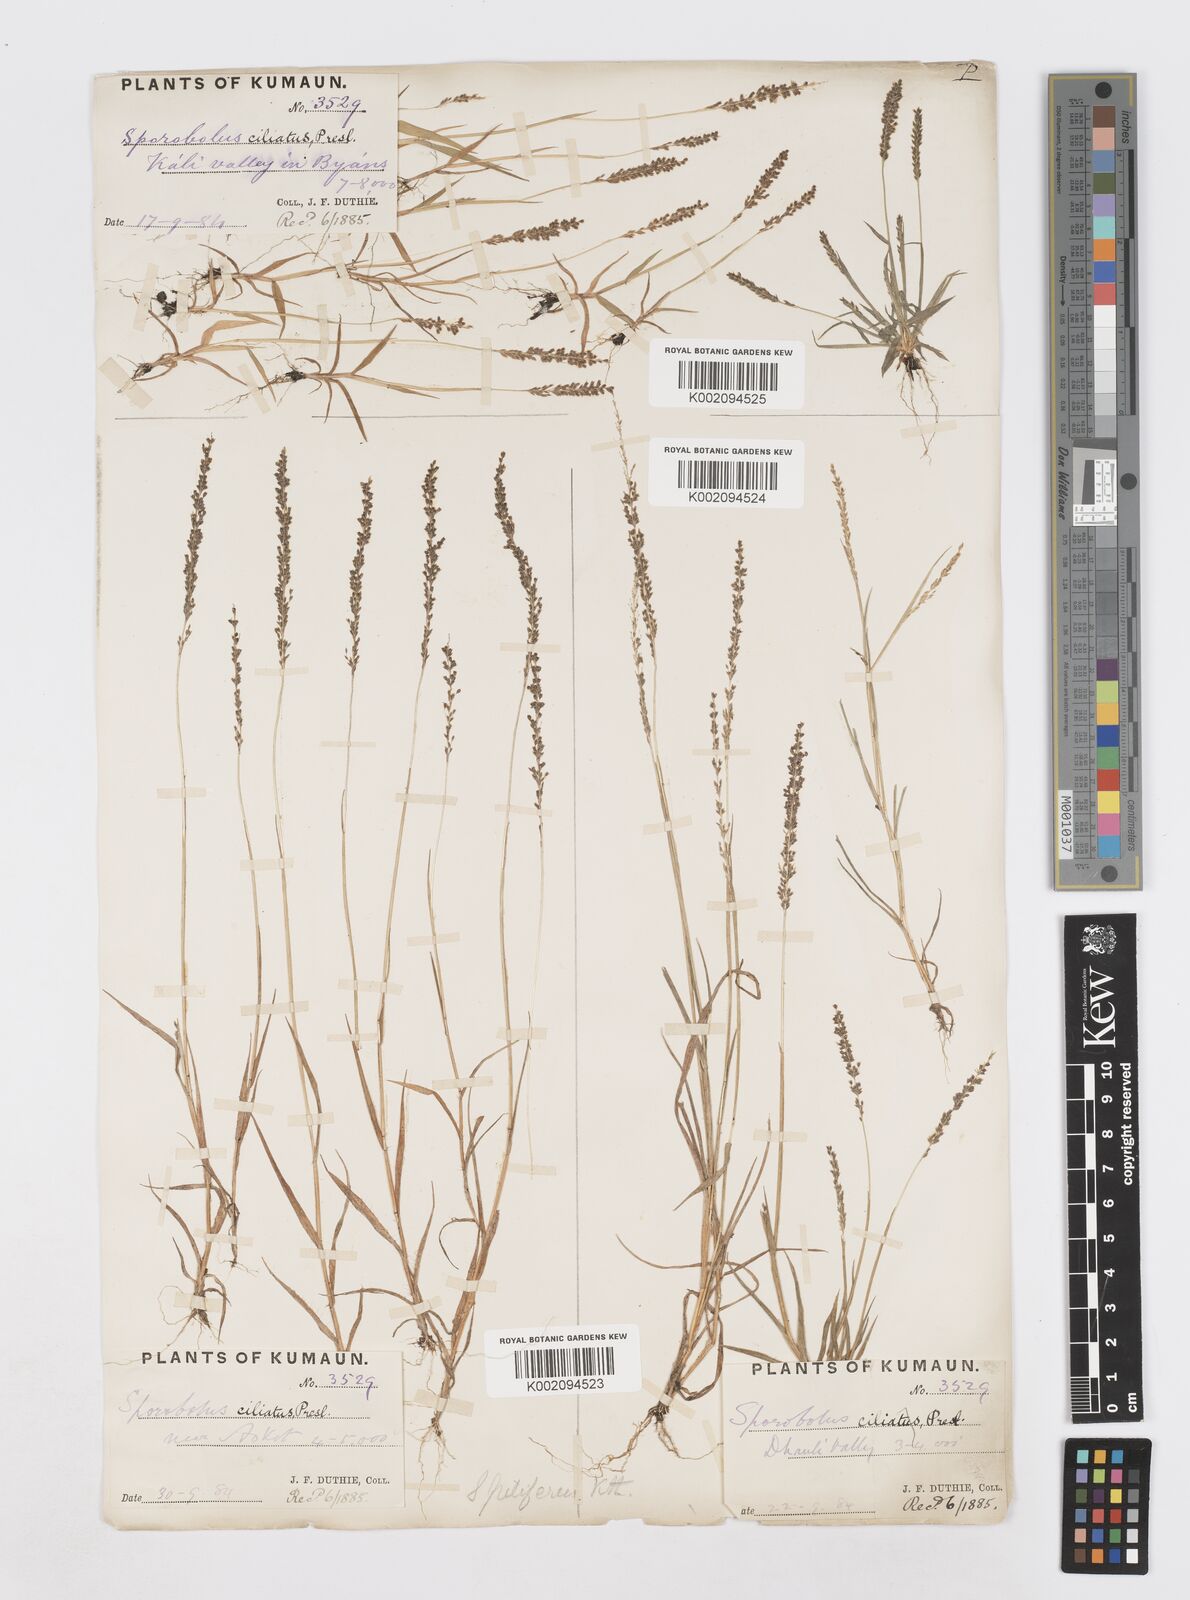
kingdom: Plantae
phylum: Tracheophyta
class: Liliopsida
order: Poales
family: Poaceae
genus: Sporobolus
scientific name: Sporobolus pilifer
